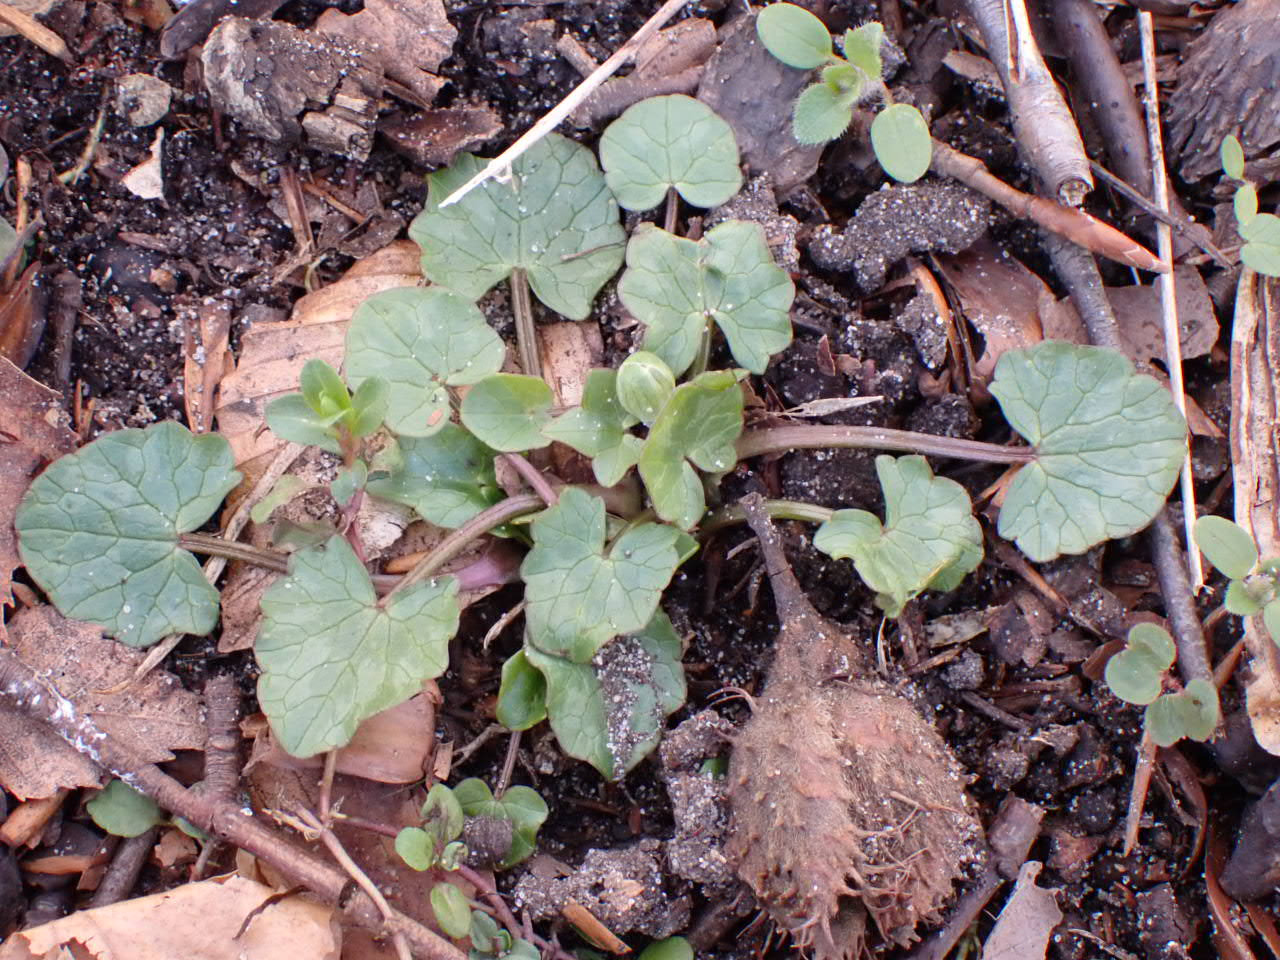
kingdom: Plantae
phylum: Tracheophyta
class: Magnoliopsida
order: Ranunculales
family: Ranunculaceae
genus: Ficaria
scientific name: Ficaria verna
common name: Vorterod
